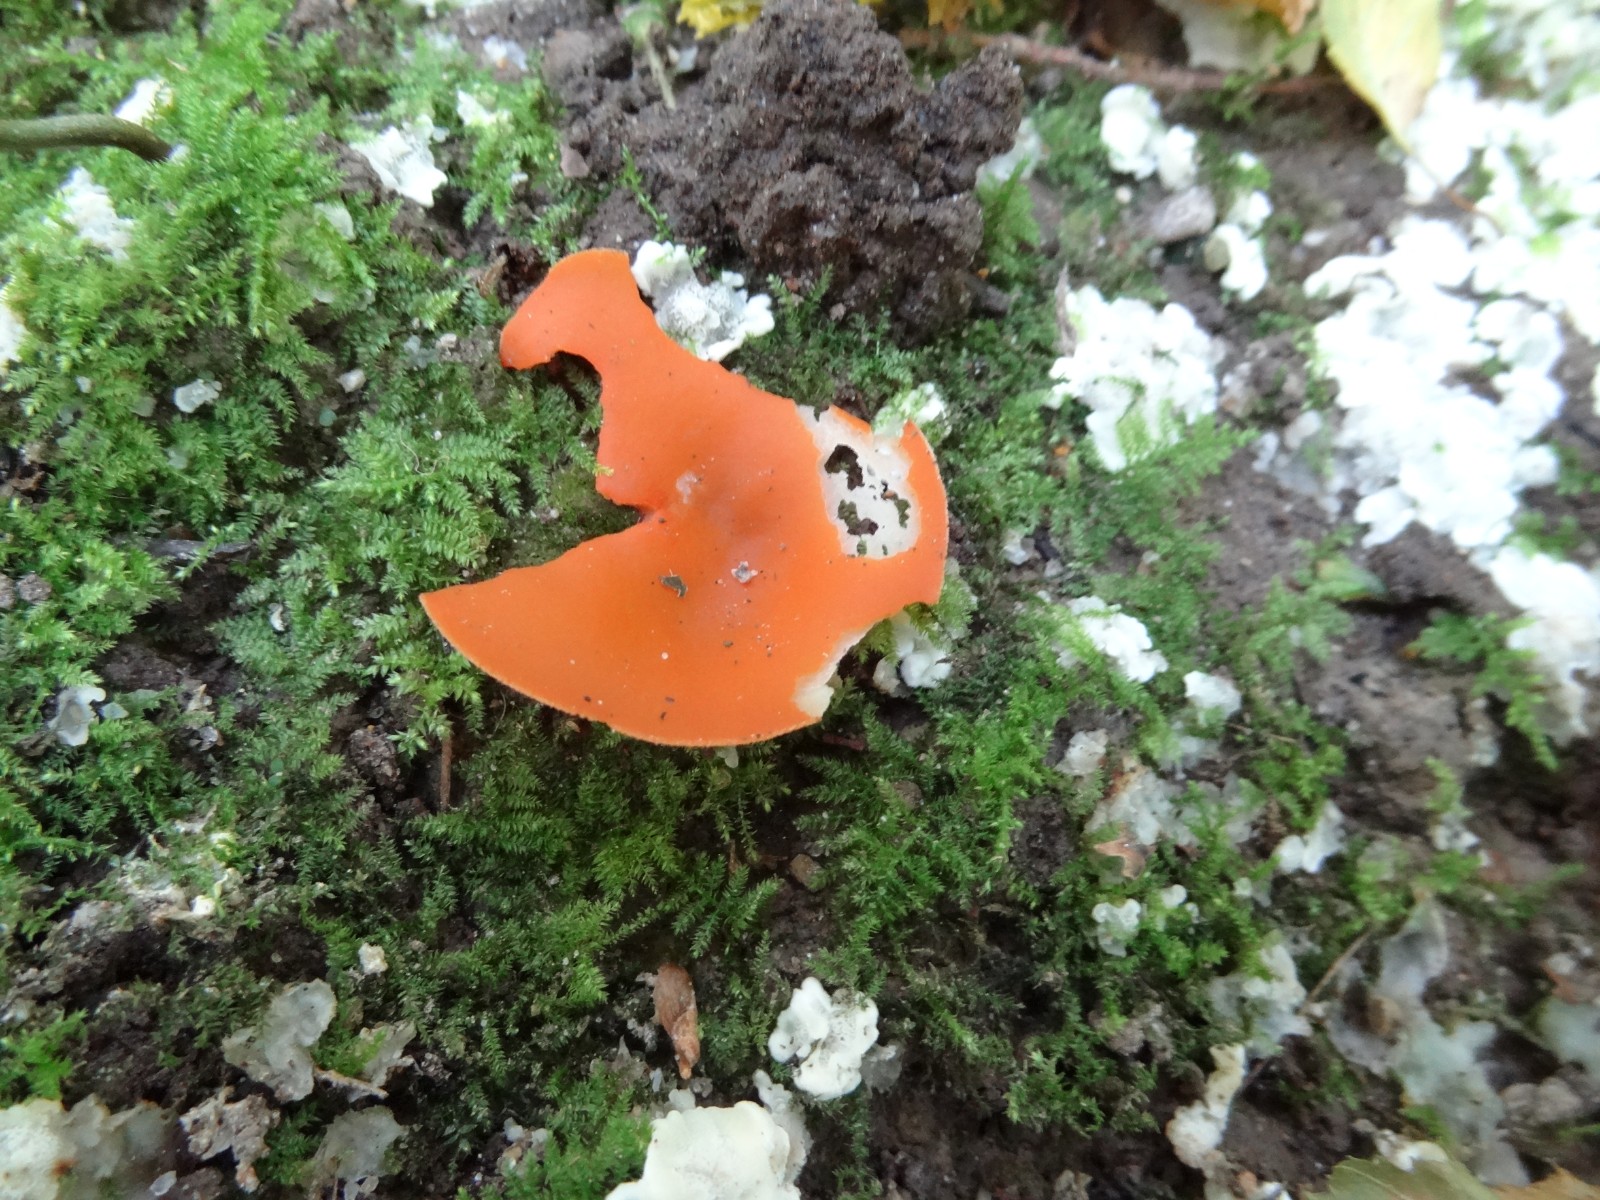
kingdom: Fungi
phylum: Ascomycota
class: Pezizomycetes
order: Pezizales
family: Pyronemataceae
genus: Aleuria
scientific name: Aleuria aurantia
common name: almindelig orangebæger
